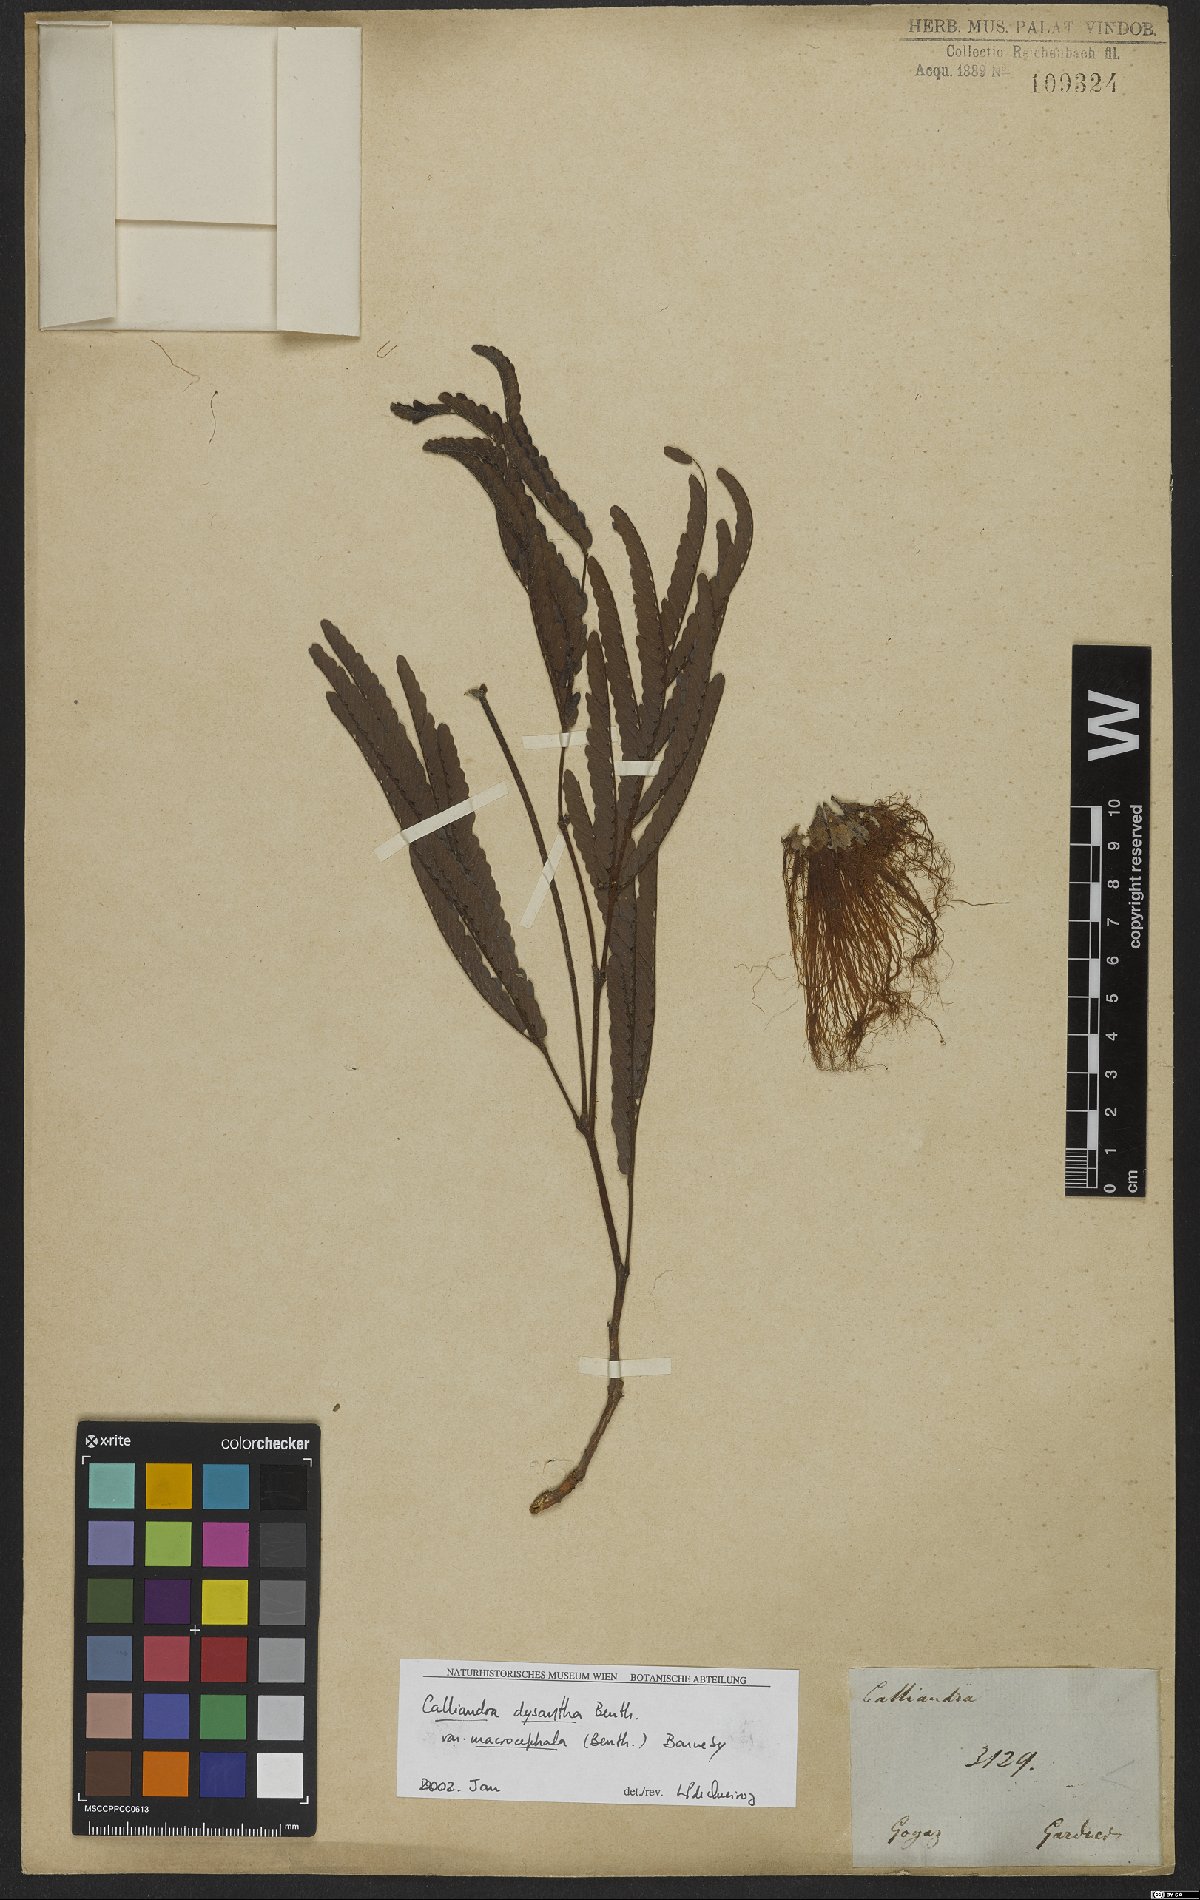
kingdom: Plantae
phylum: Tracheophyta
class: Magnoliopsida
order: Fabales
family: Fabaceae
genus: Calliandra
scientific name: Calliandra dysantha
